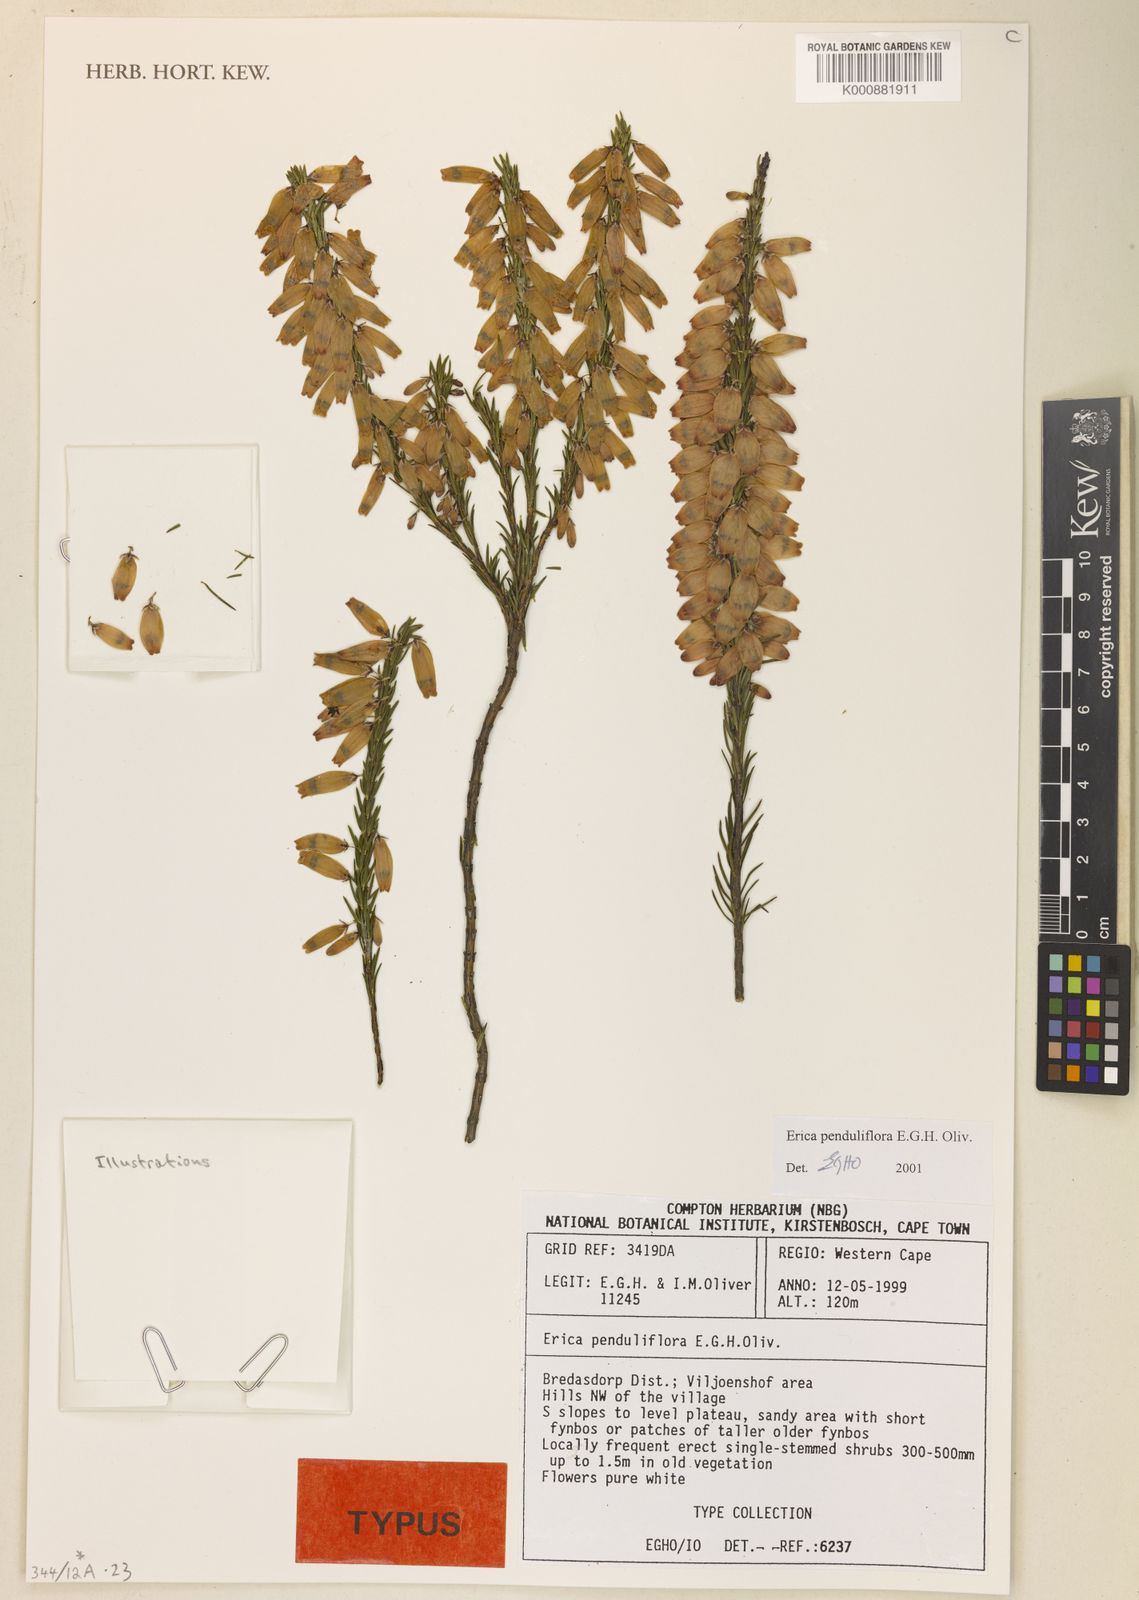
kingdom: Plantae
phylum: Tracheophyta
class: Magnoliopsida
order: Ericales
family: Ericaceae
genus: Erica
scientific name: Erica penduliflora
